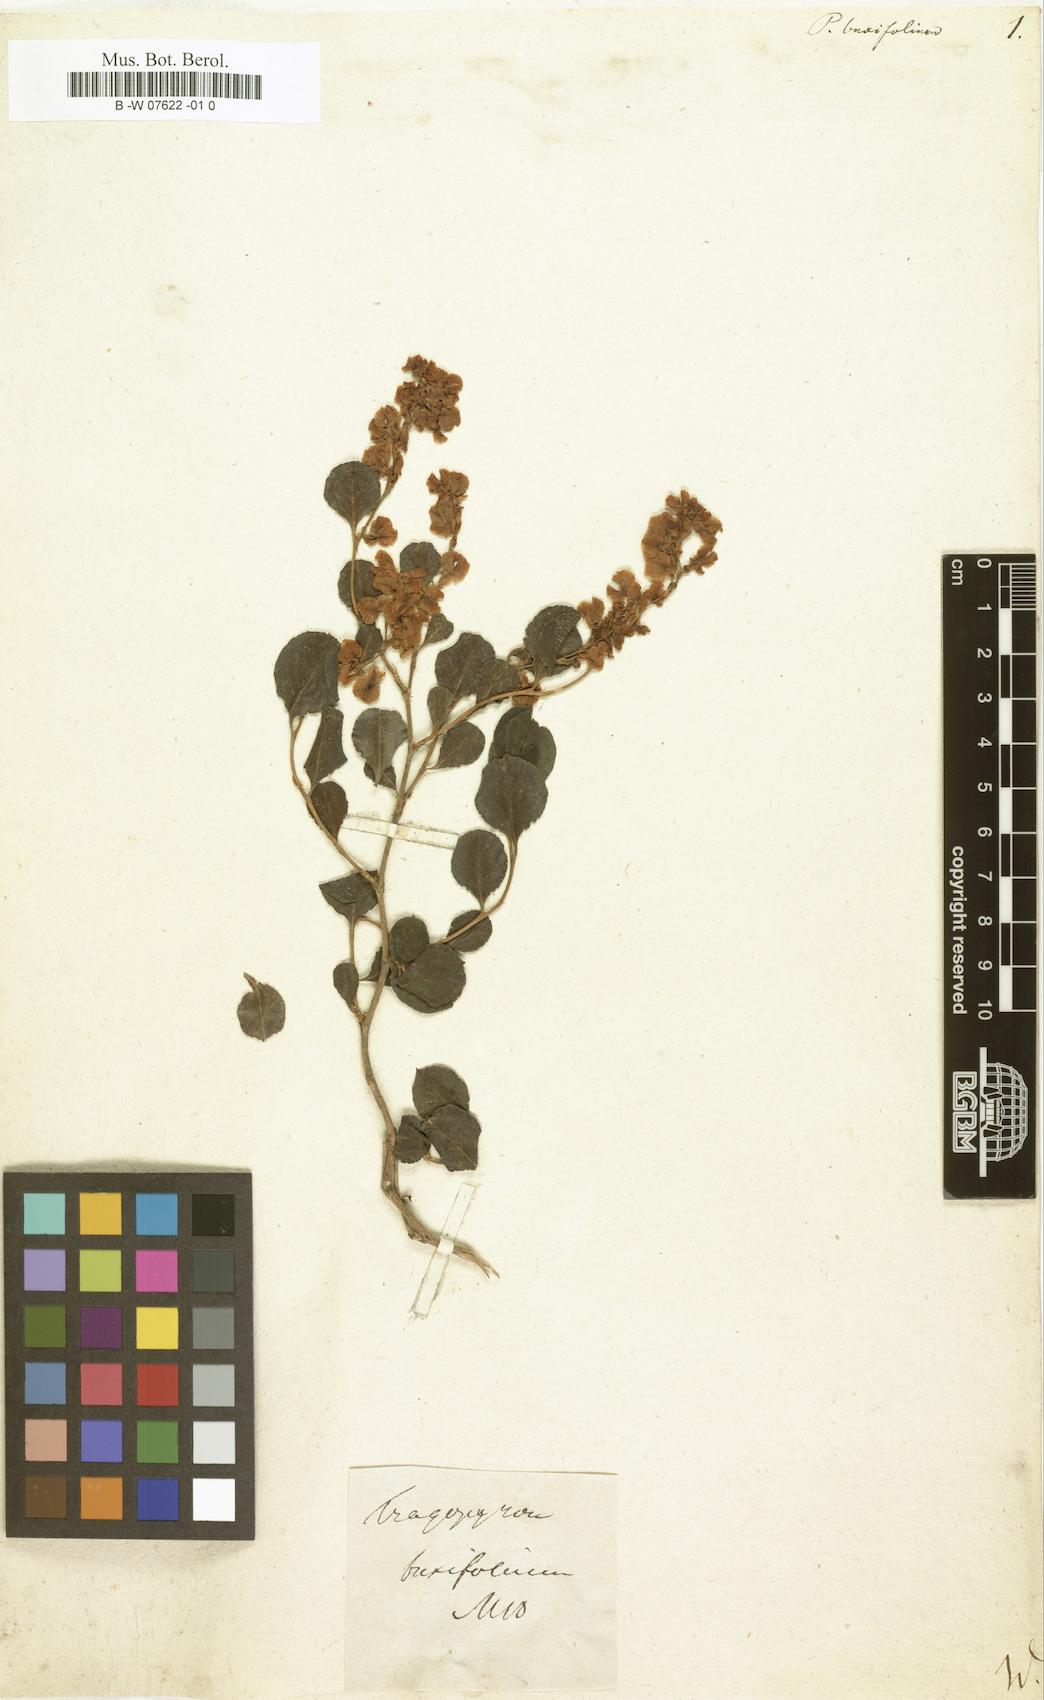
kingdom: Plantae
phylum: Tracheophyta
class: Magnoliopsida
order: Caryophyllales
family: Polygonaceae
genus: Polygonum
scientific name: Polygonum aviculare
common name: Prostrate knotweed
